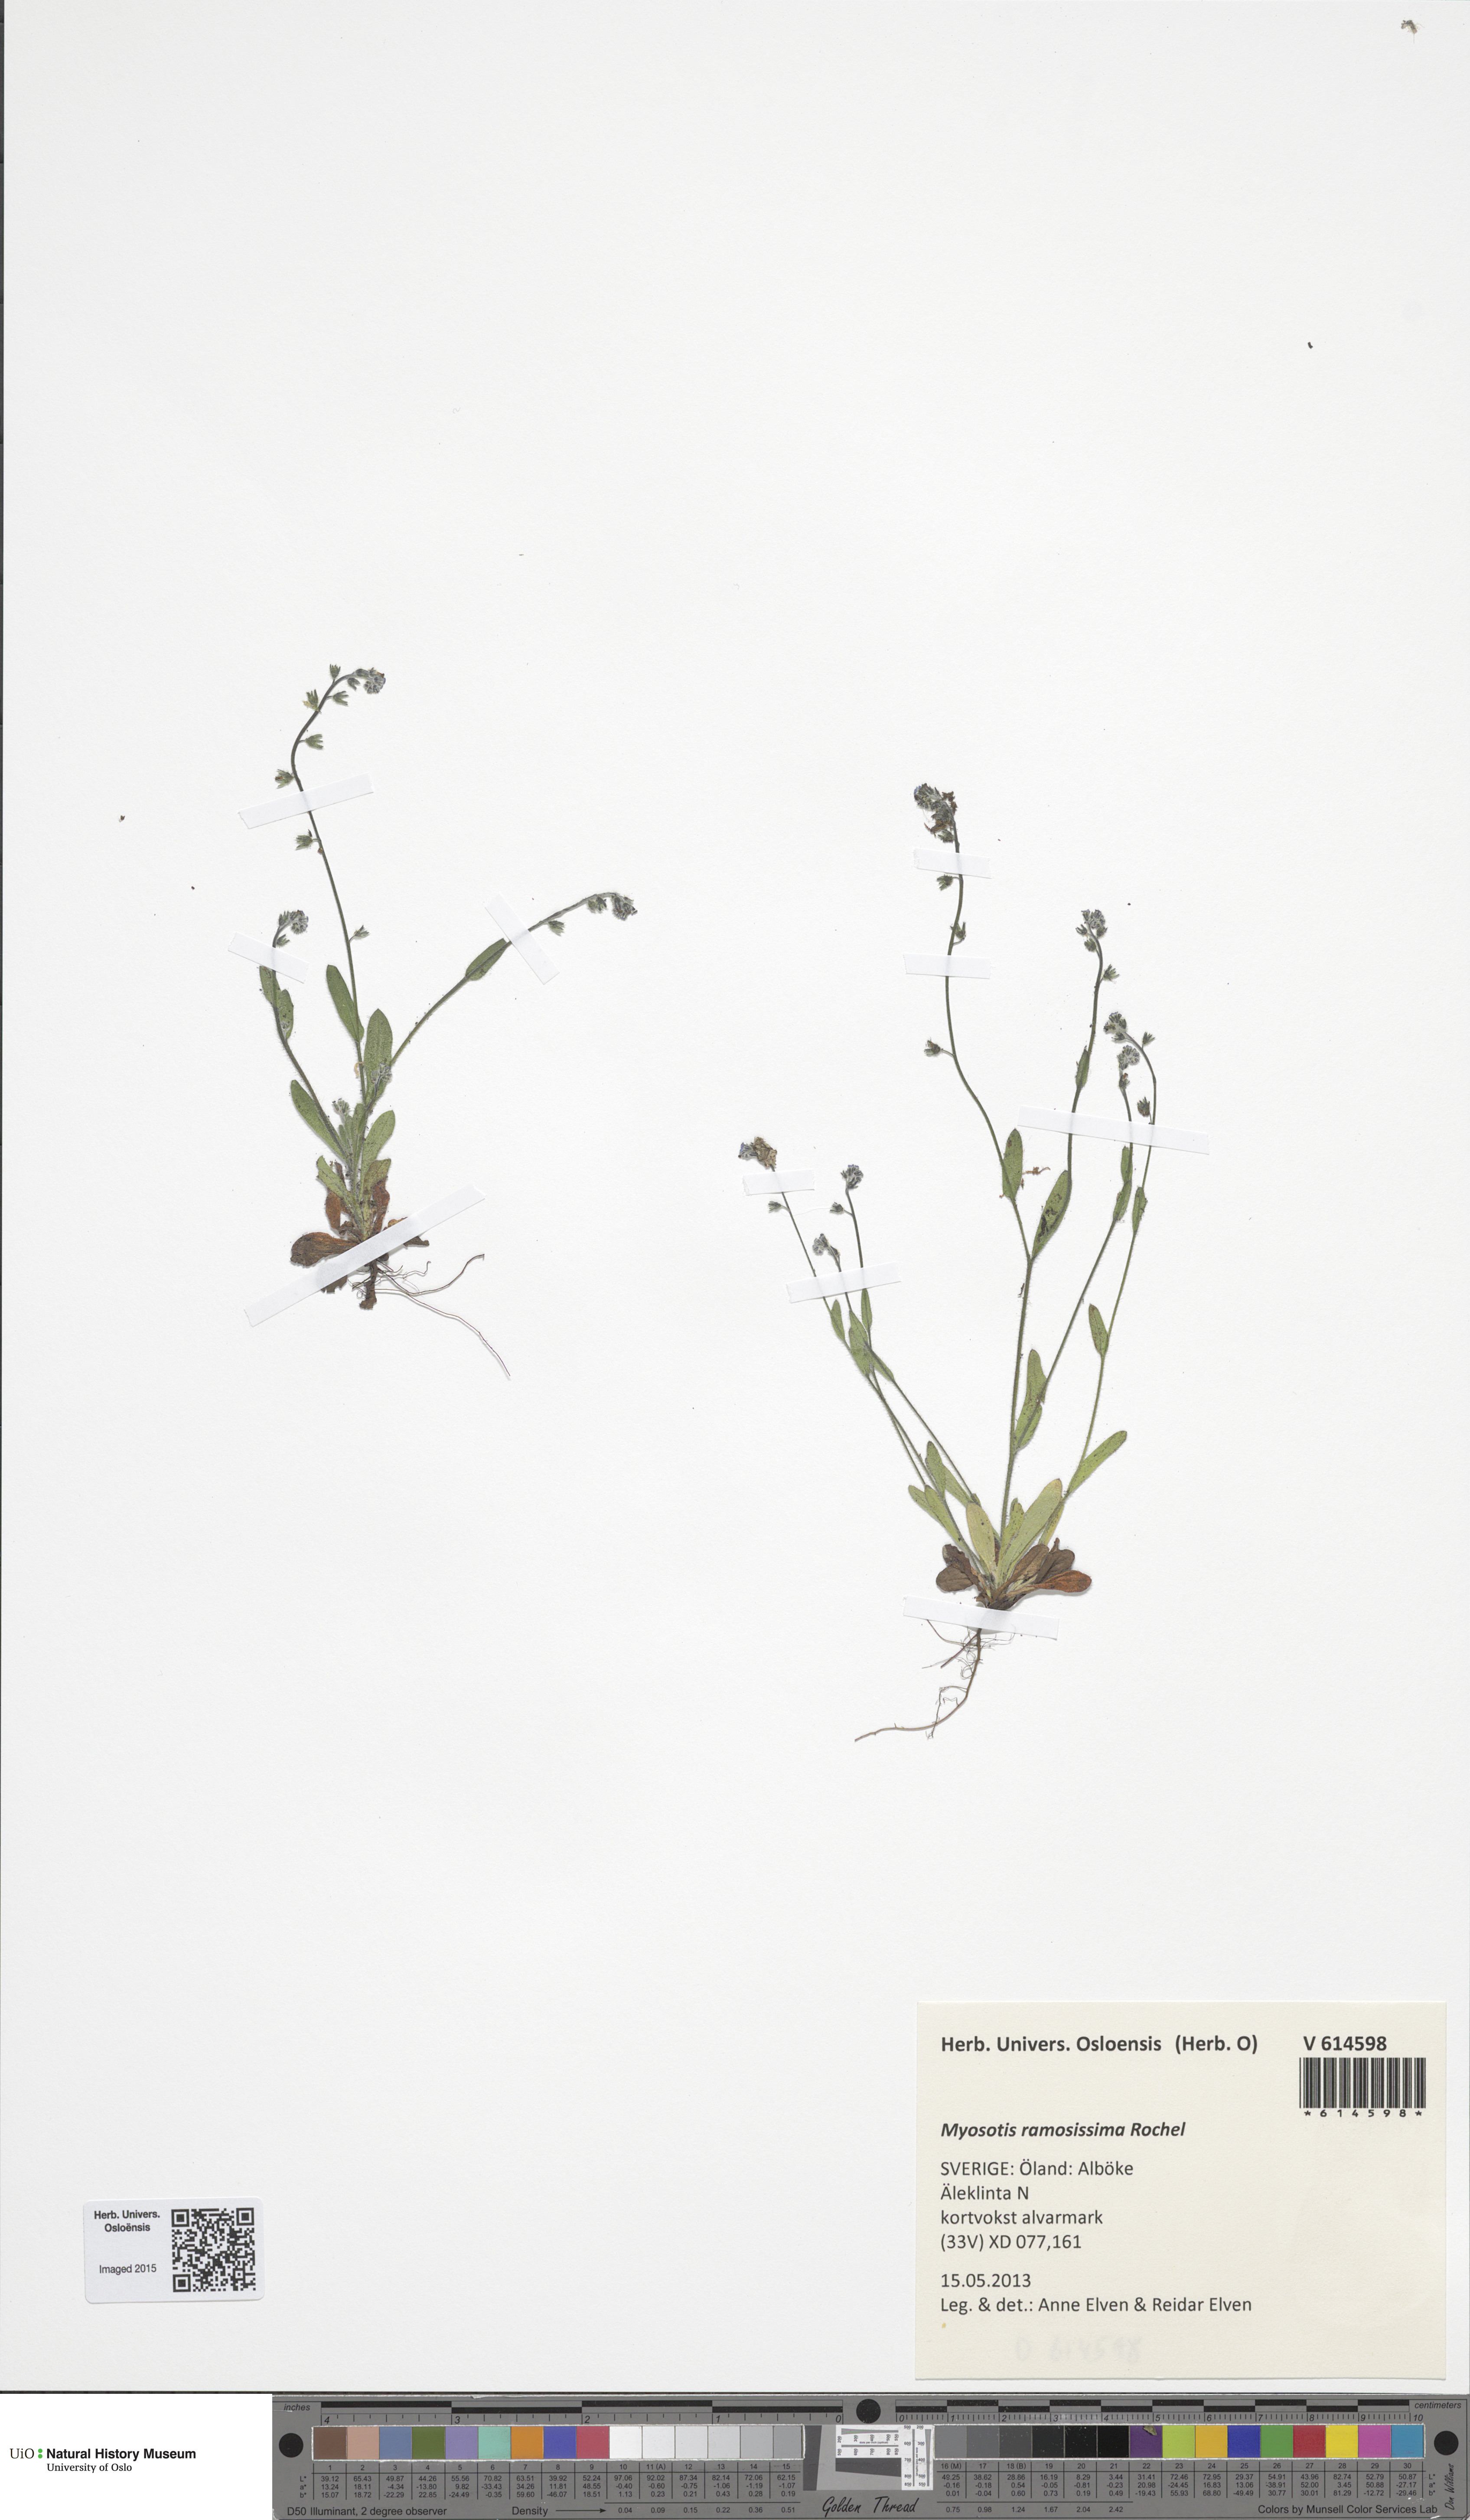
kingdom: Plantae
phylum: Tracheophyta
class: Magnoliopsida
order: Boraginales
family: Boraginaceae
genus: Myosotis
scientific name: Myosotis ramosissima
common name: Early forget-me-not
